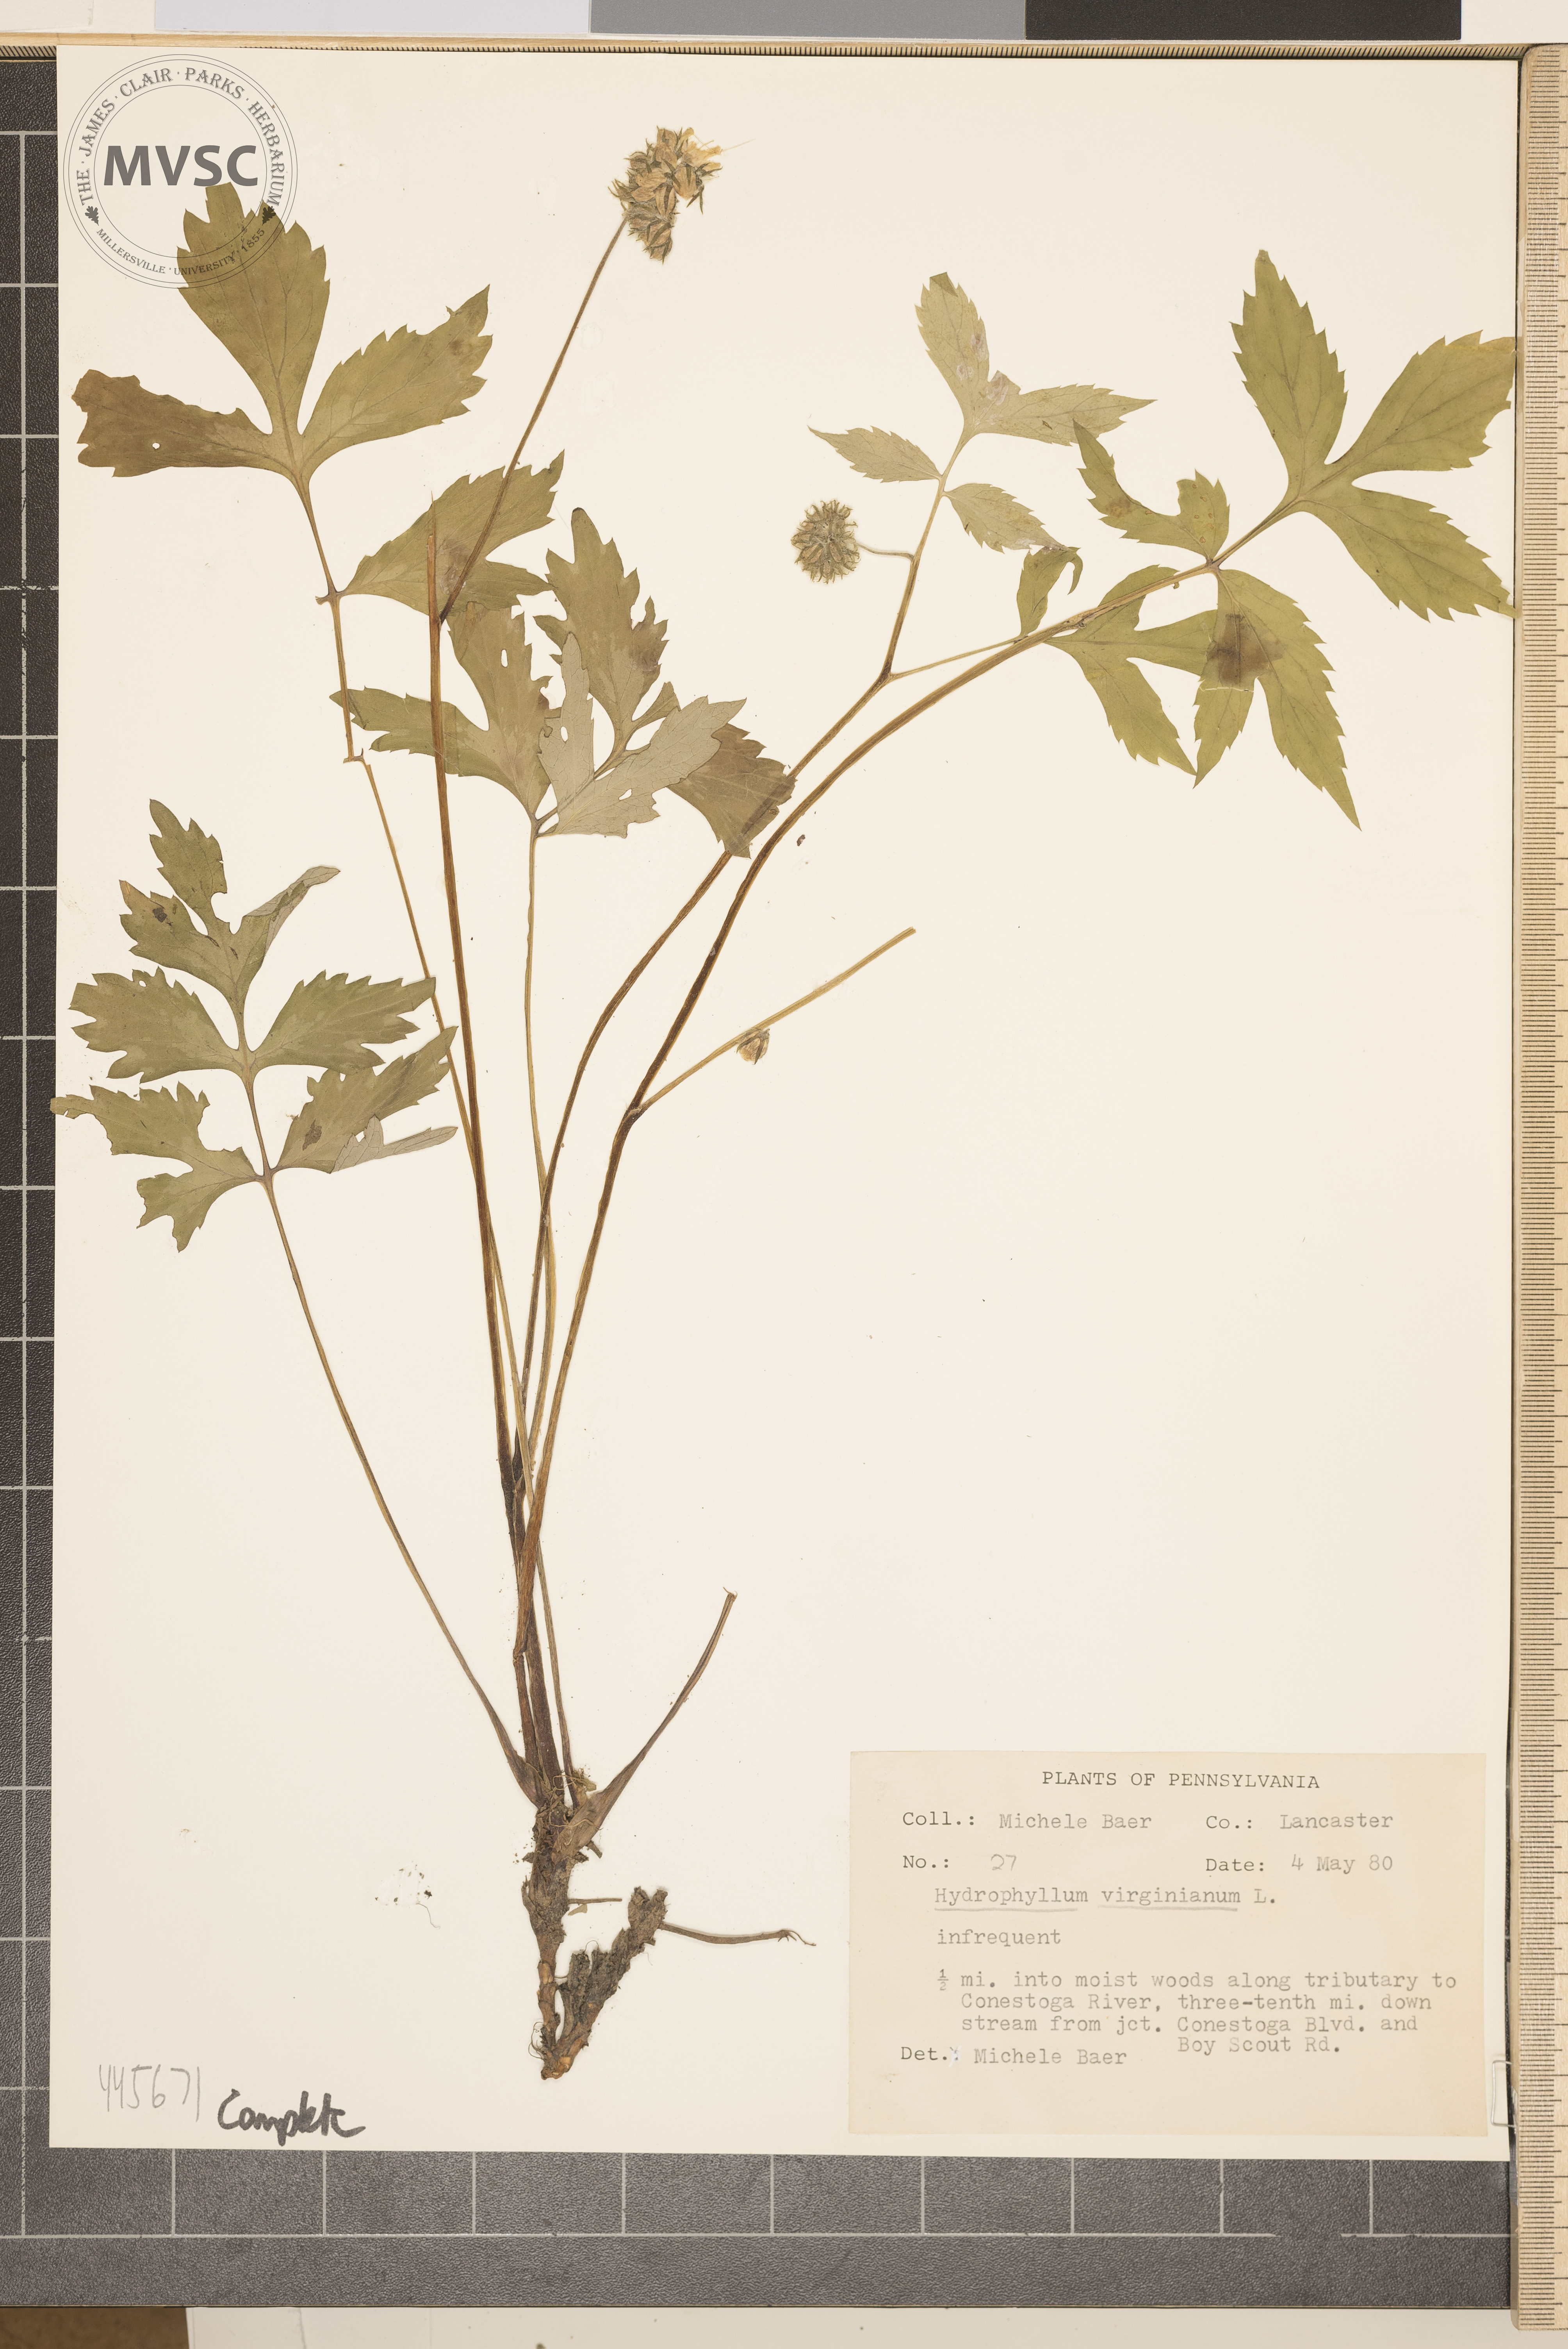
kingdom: Plantae
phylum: Tracheophyta
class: Magnoliopsida
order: Boraginales
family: Hydrophyllaceae
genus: Hydrophyllum
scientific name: Hydrophyllum virginianum
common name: Virginia waterleaf
